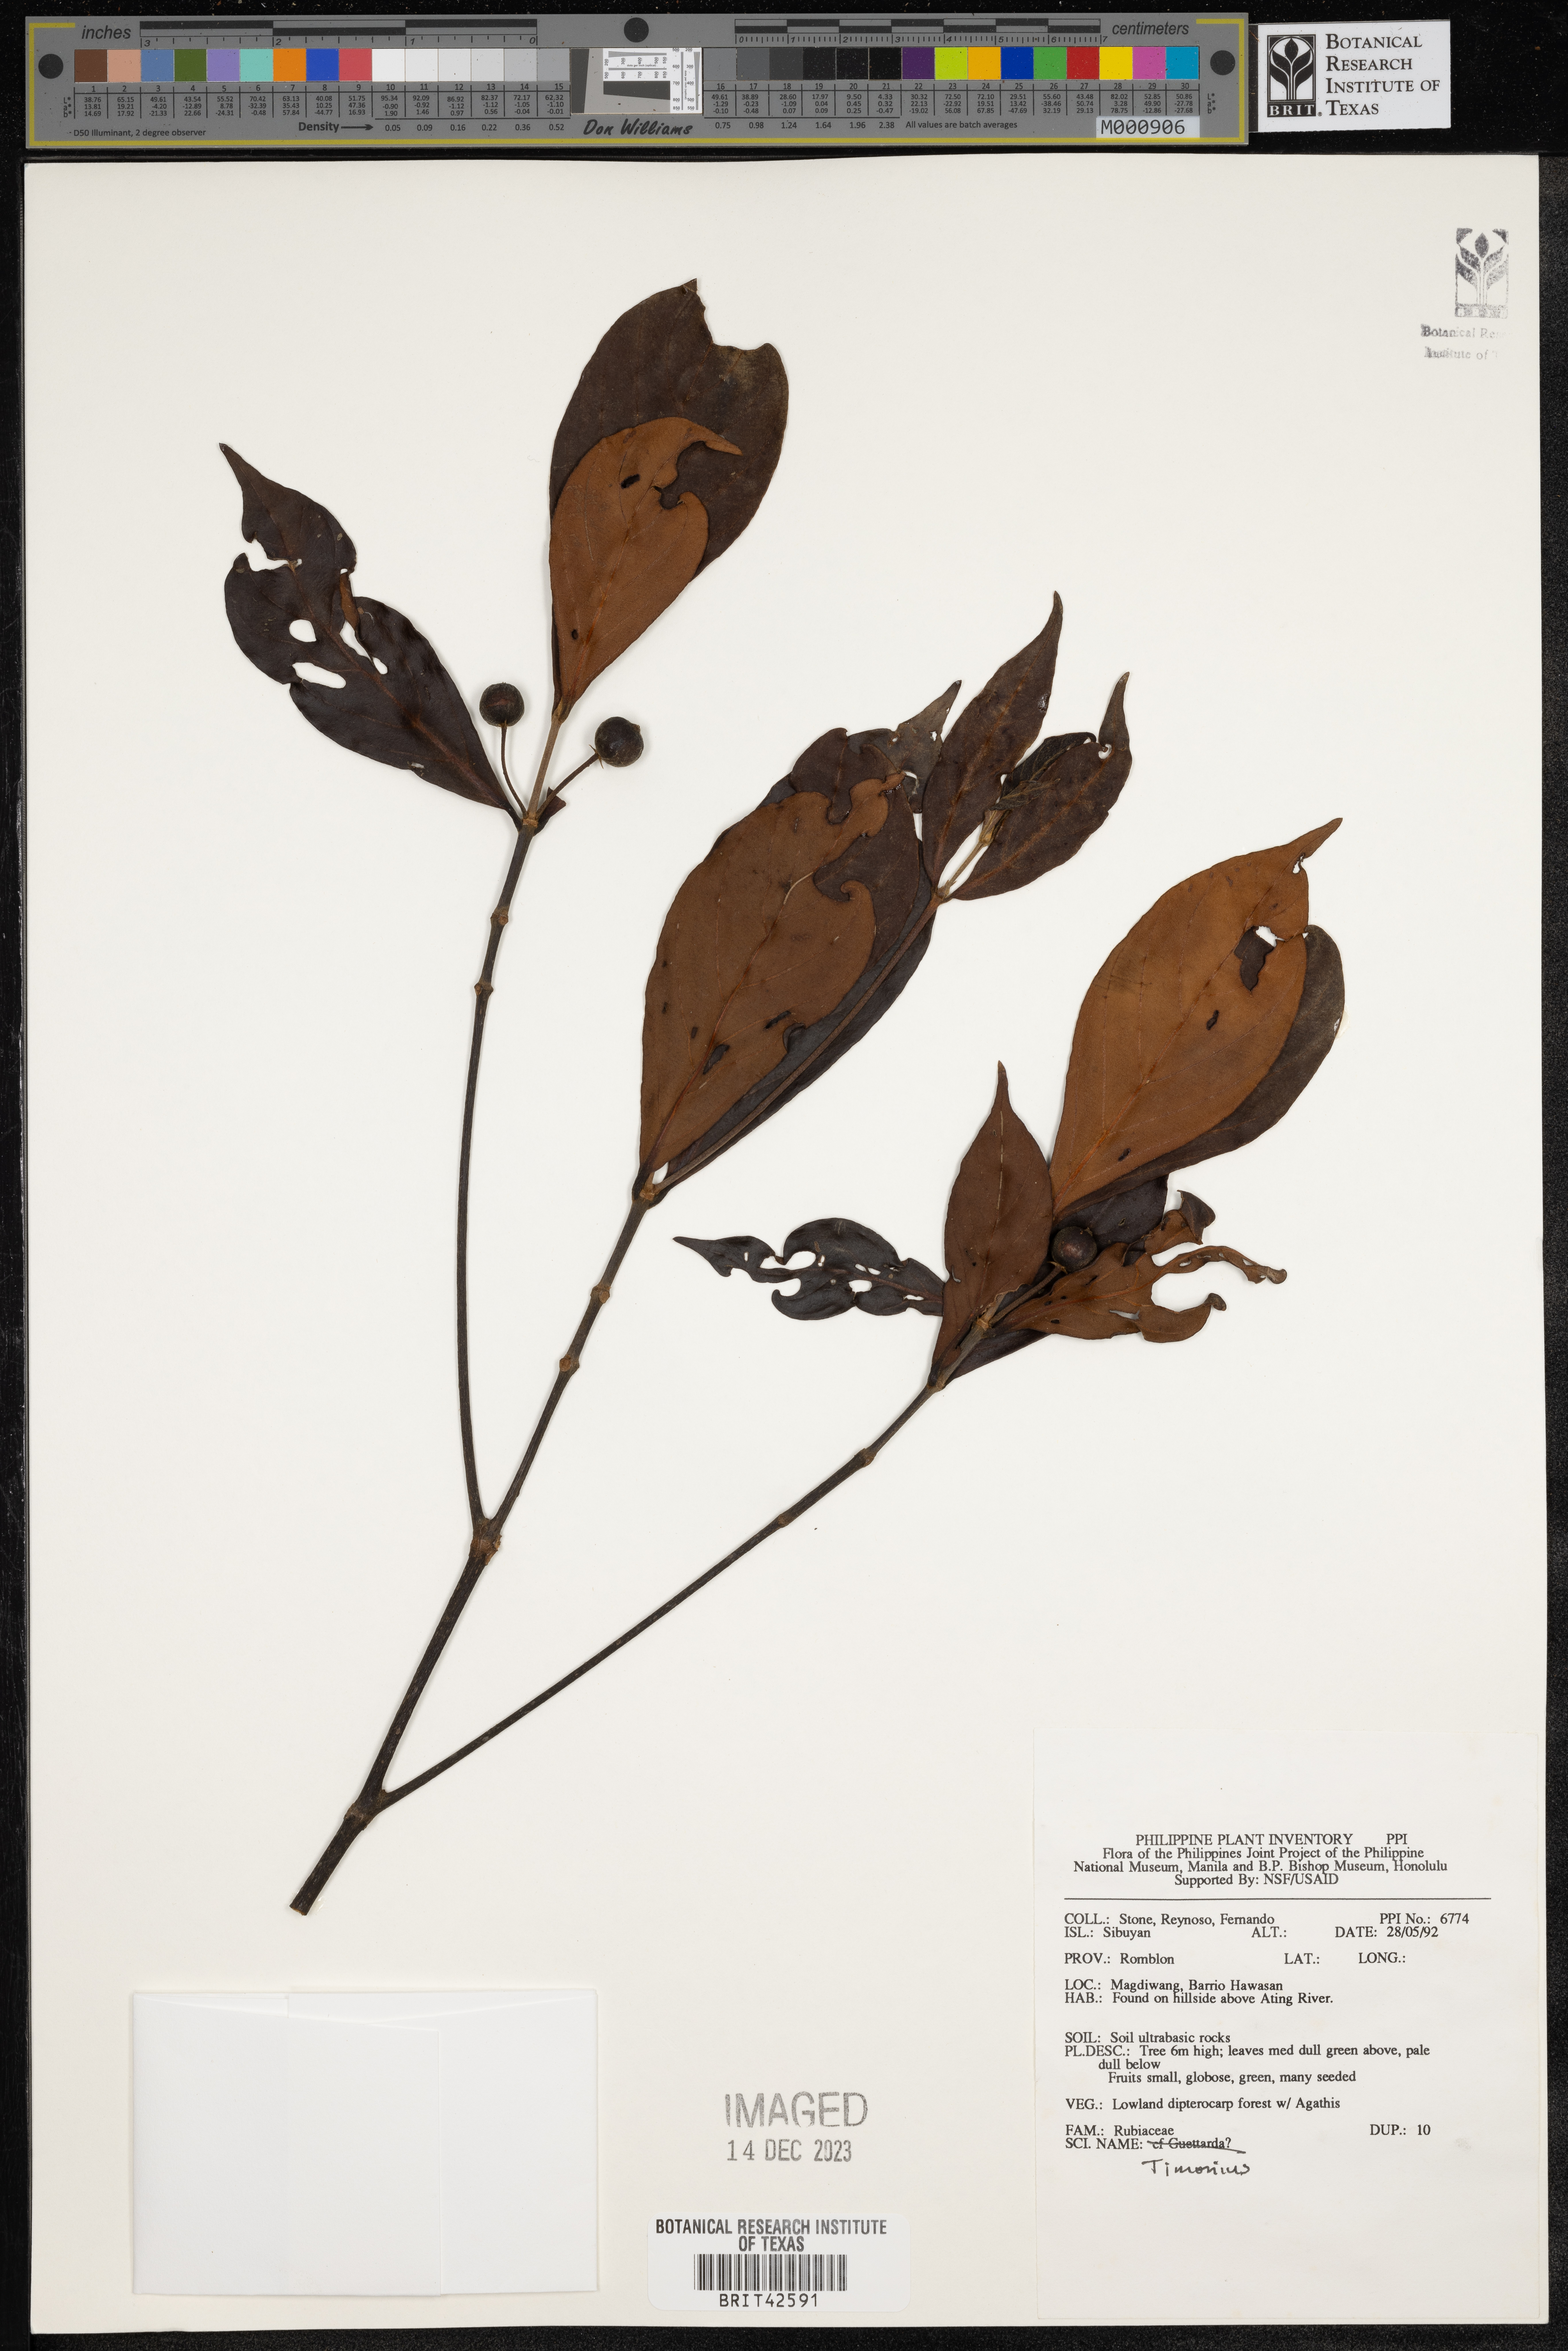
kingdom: Plantae
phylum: Tracheophyta
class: Magnoliopsida
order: Gentianales
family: Rubiaceae
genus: Timonius
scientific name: Timonius
